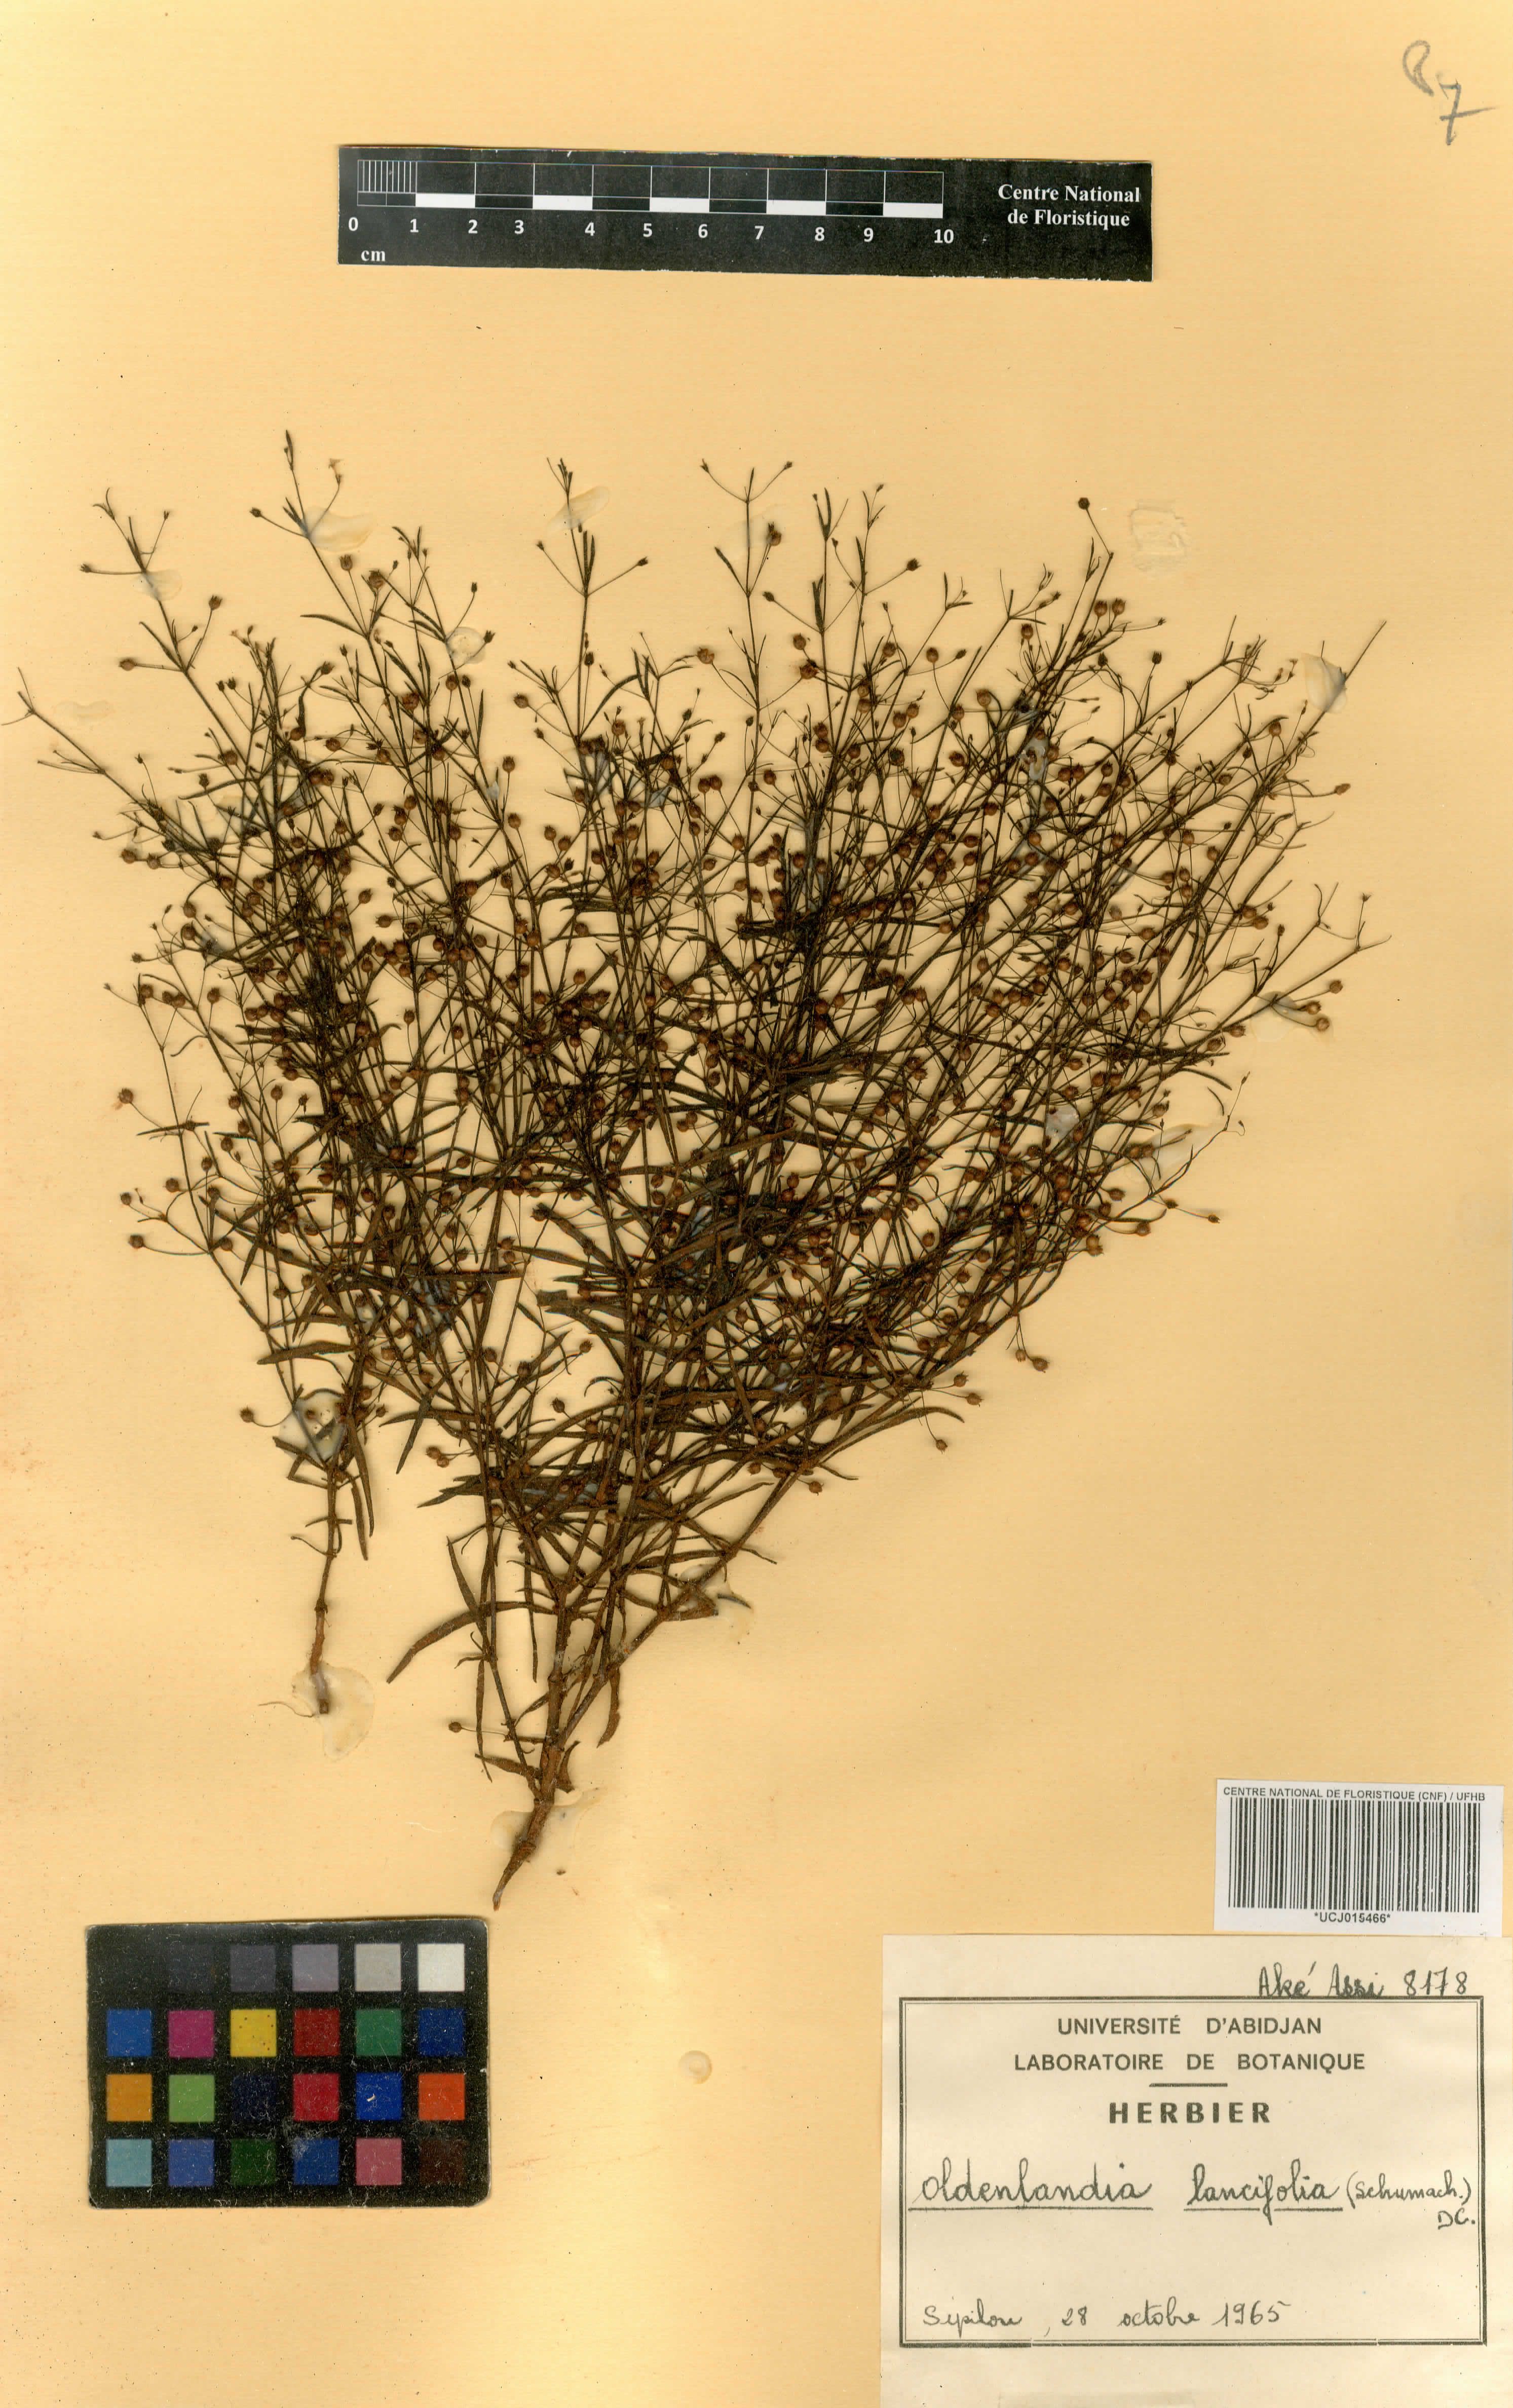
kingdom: Plantae
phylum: Tracheophyta
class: Magnoliopsida
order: Gentianales
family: Rubiaceae
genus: Oldenlandia
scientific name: Oldenlandia lancifolia
